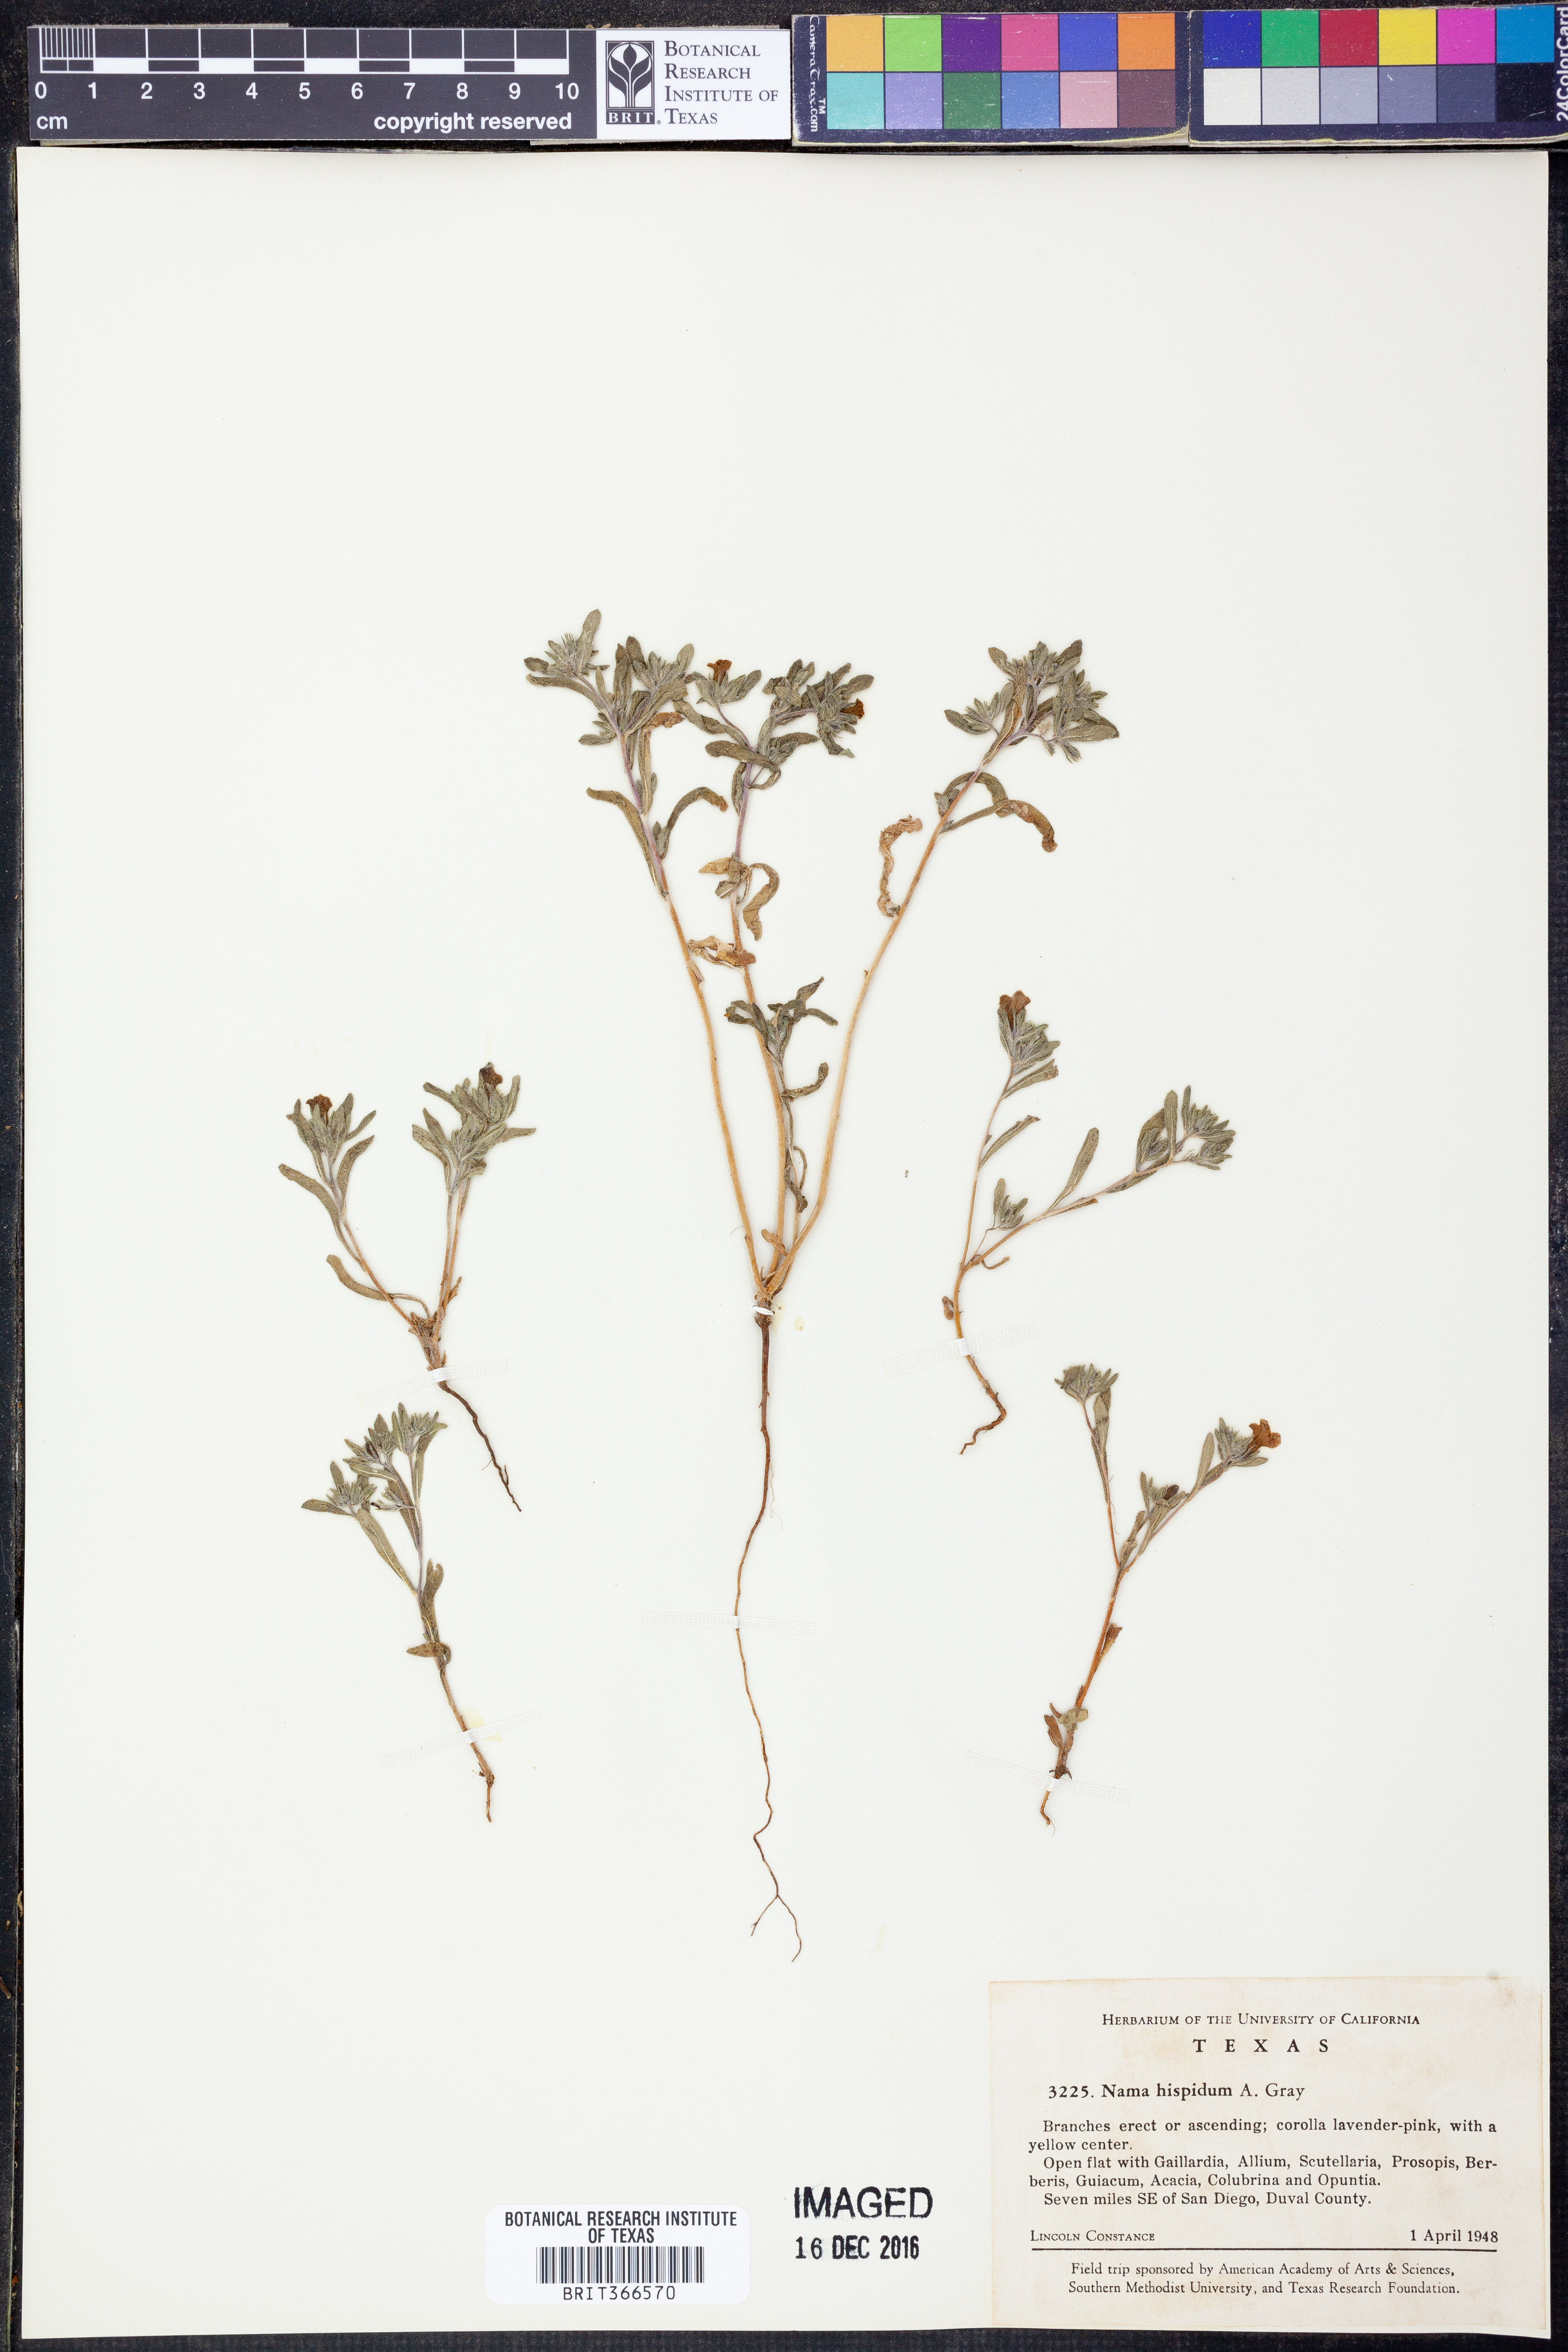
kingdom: Plantae
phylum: Tracheophyta
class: Magnoliopsida
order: Boraginales
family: Namaceae
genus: Nama
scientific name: Nama hispida
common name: Bristly nama
